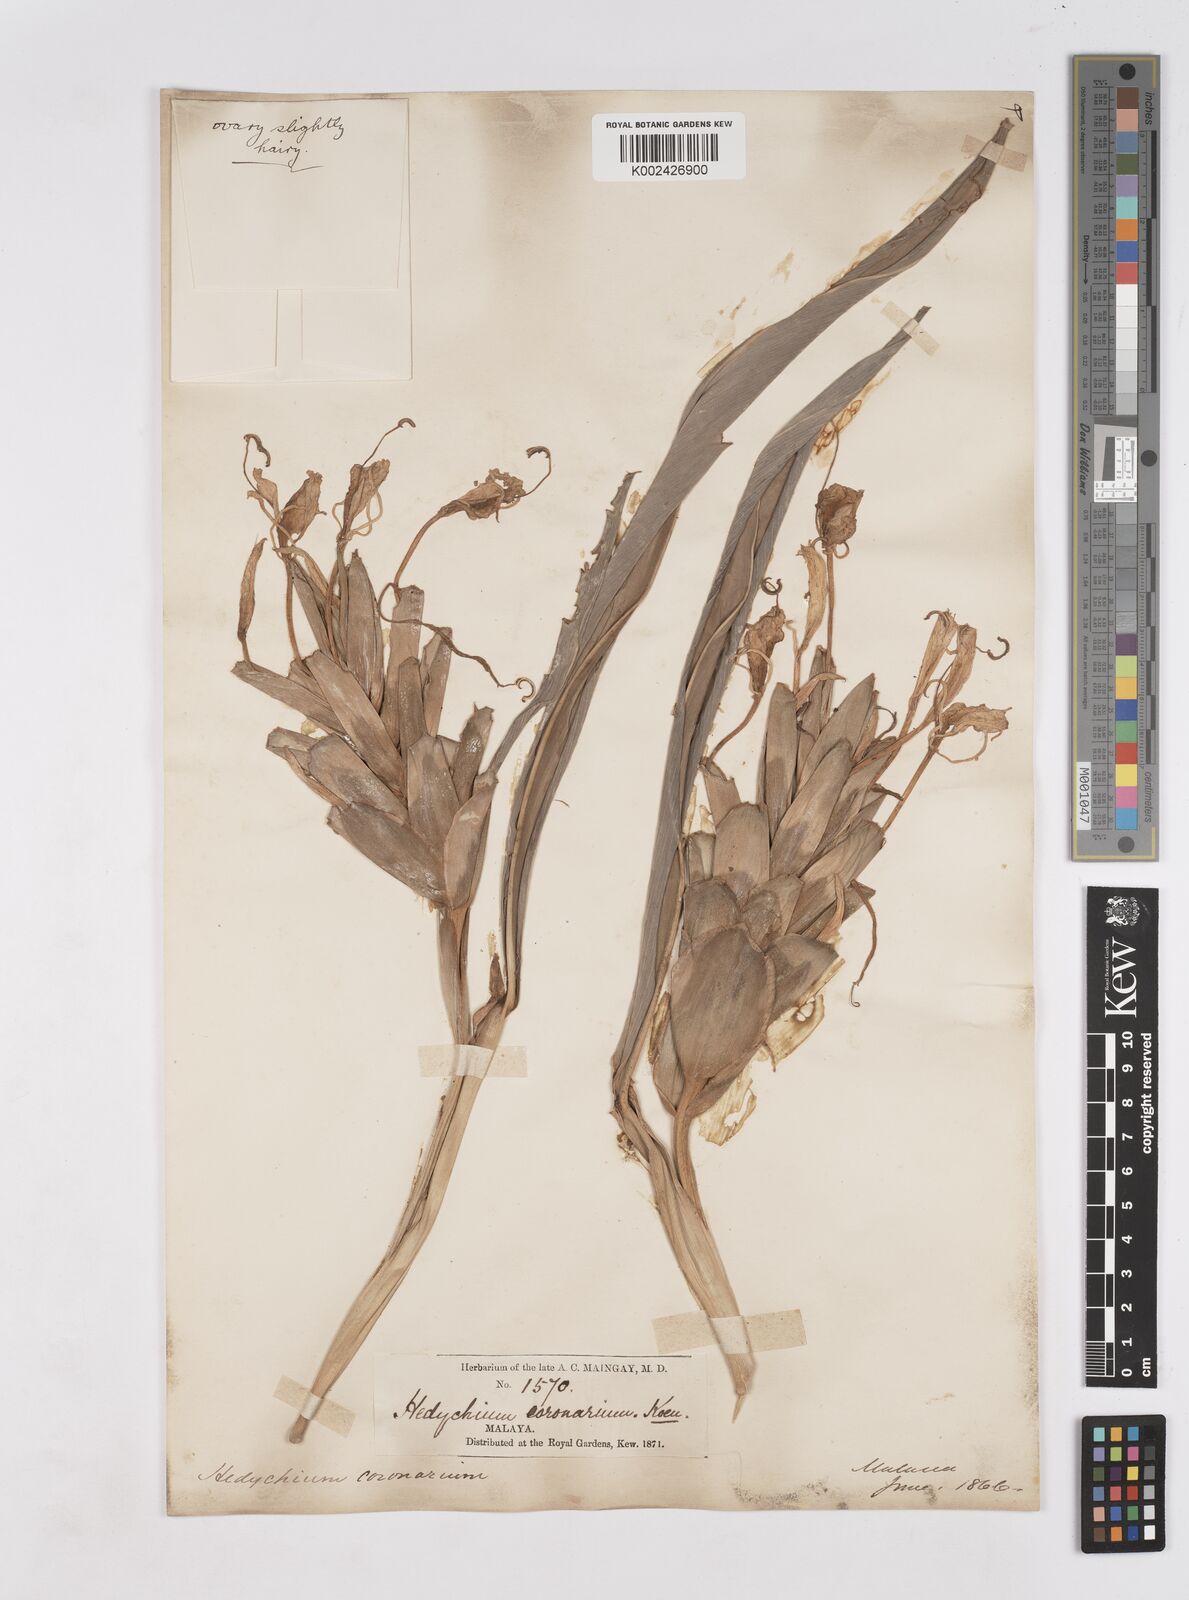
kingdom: Plantae
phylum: Tracheophyta
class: Liliopsida
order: Zingiberales
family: Zingiberaceae
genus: Hedychium
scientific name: Hedychium coronarium
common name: White garland-lily
